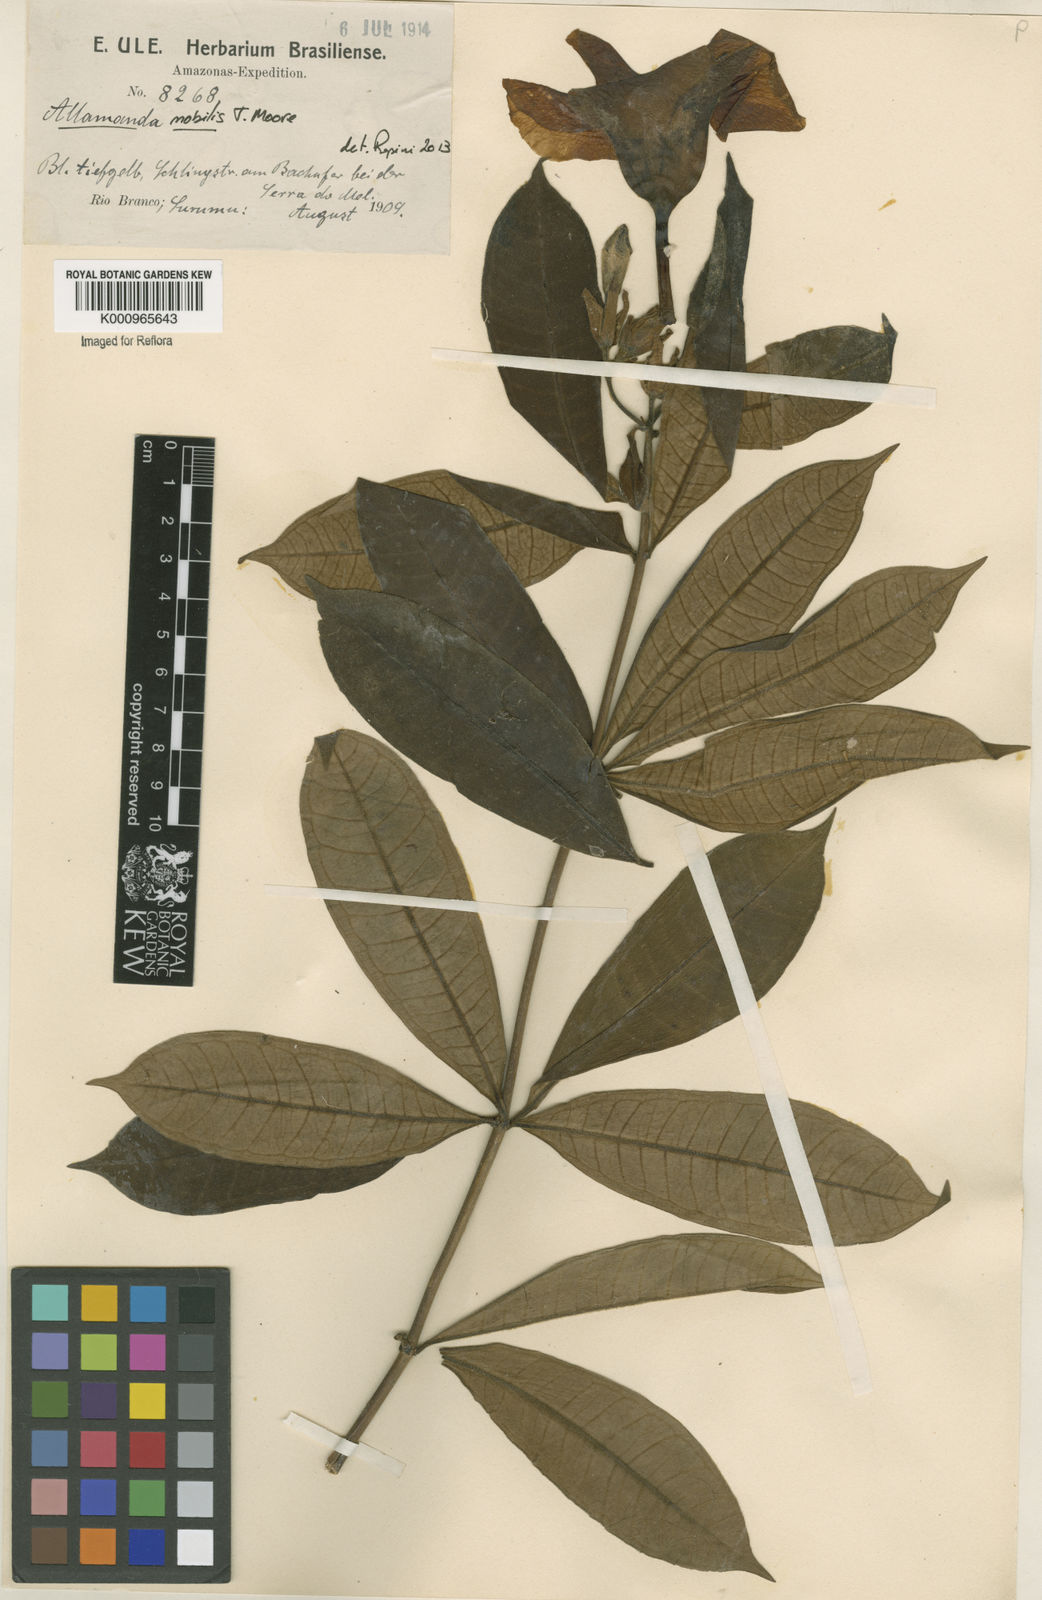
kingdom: Plantae
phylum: Tracheophyta
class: Magnoliopsida
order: Gentianales
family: Apocynaceae
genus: Allamanda
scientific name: Allamanda nobilis
